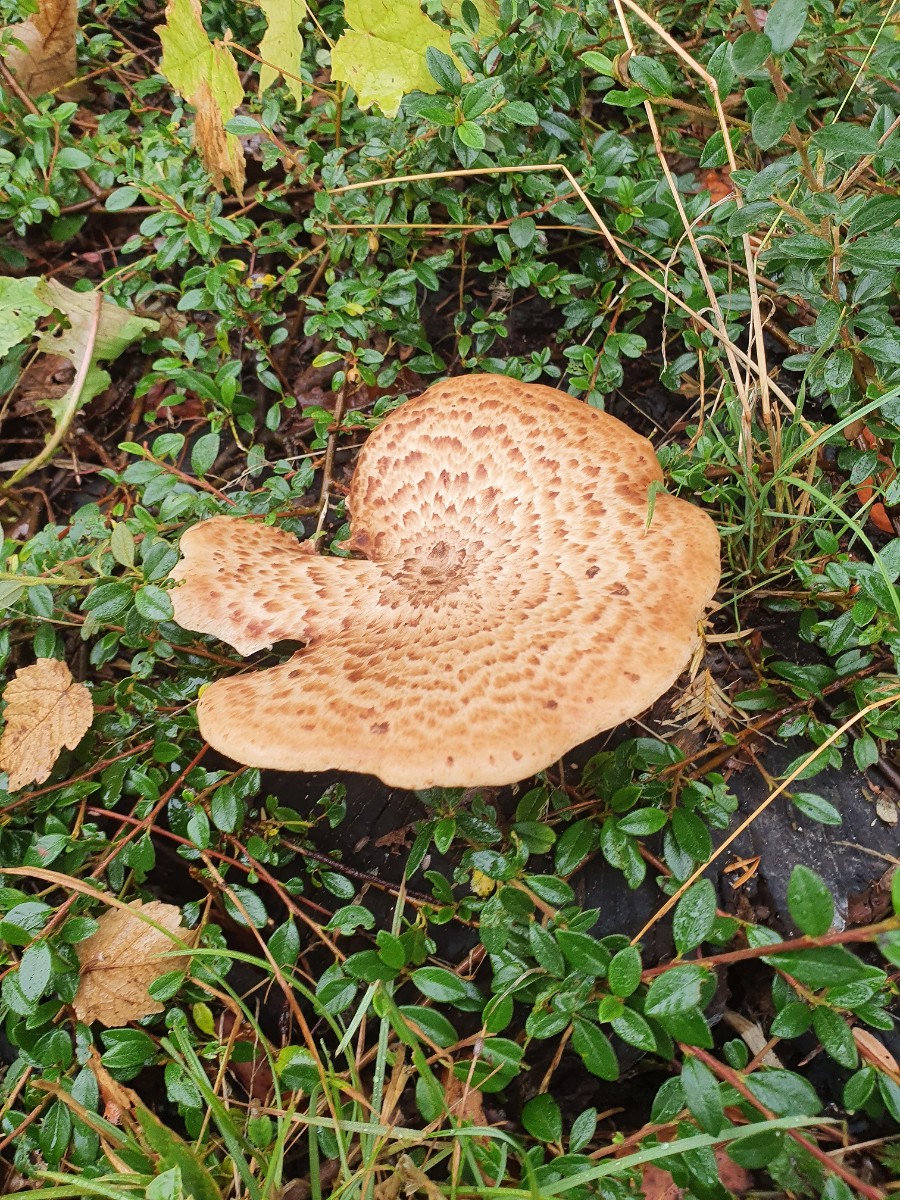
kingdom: Fungi
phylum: Basidiomycota
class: Agaricomycetes
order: Polyporales
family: Polyporaceae
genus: Cerioporus
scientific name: Cerioporus squamosus
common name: skællet stilkporesvamp
